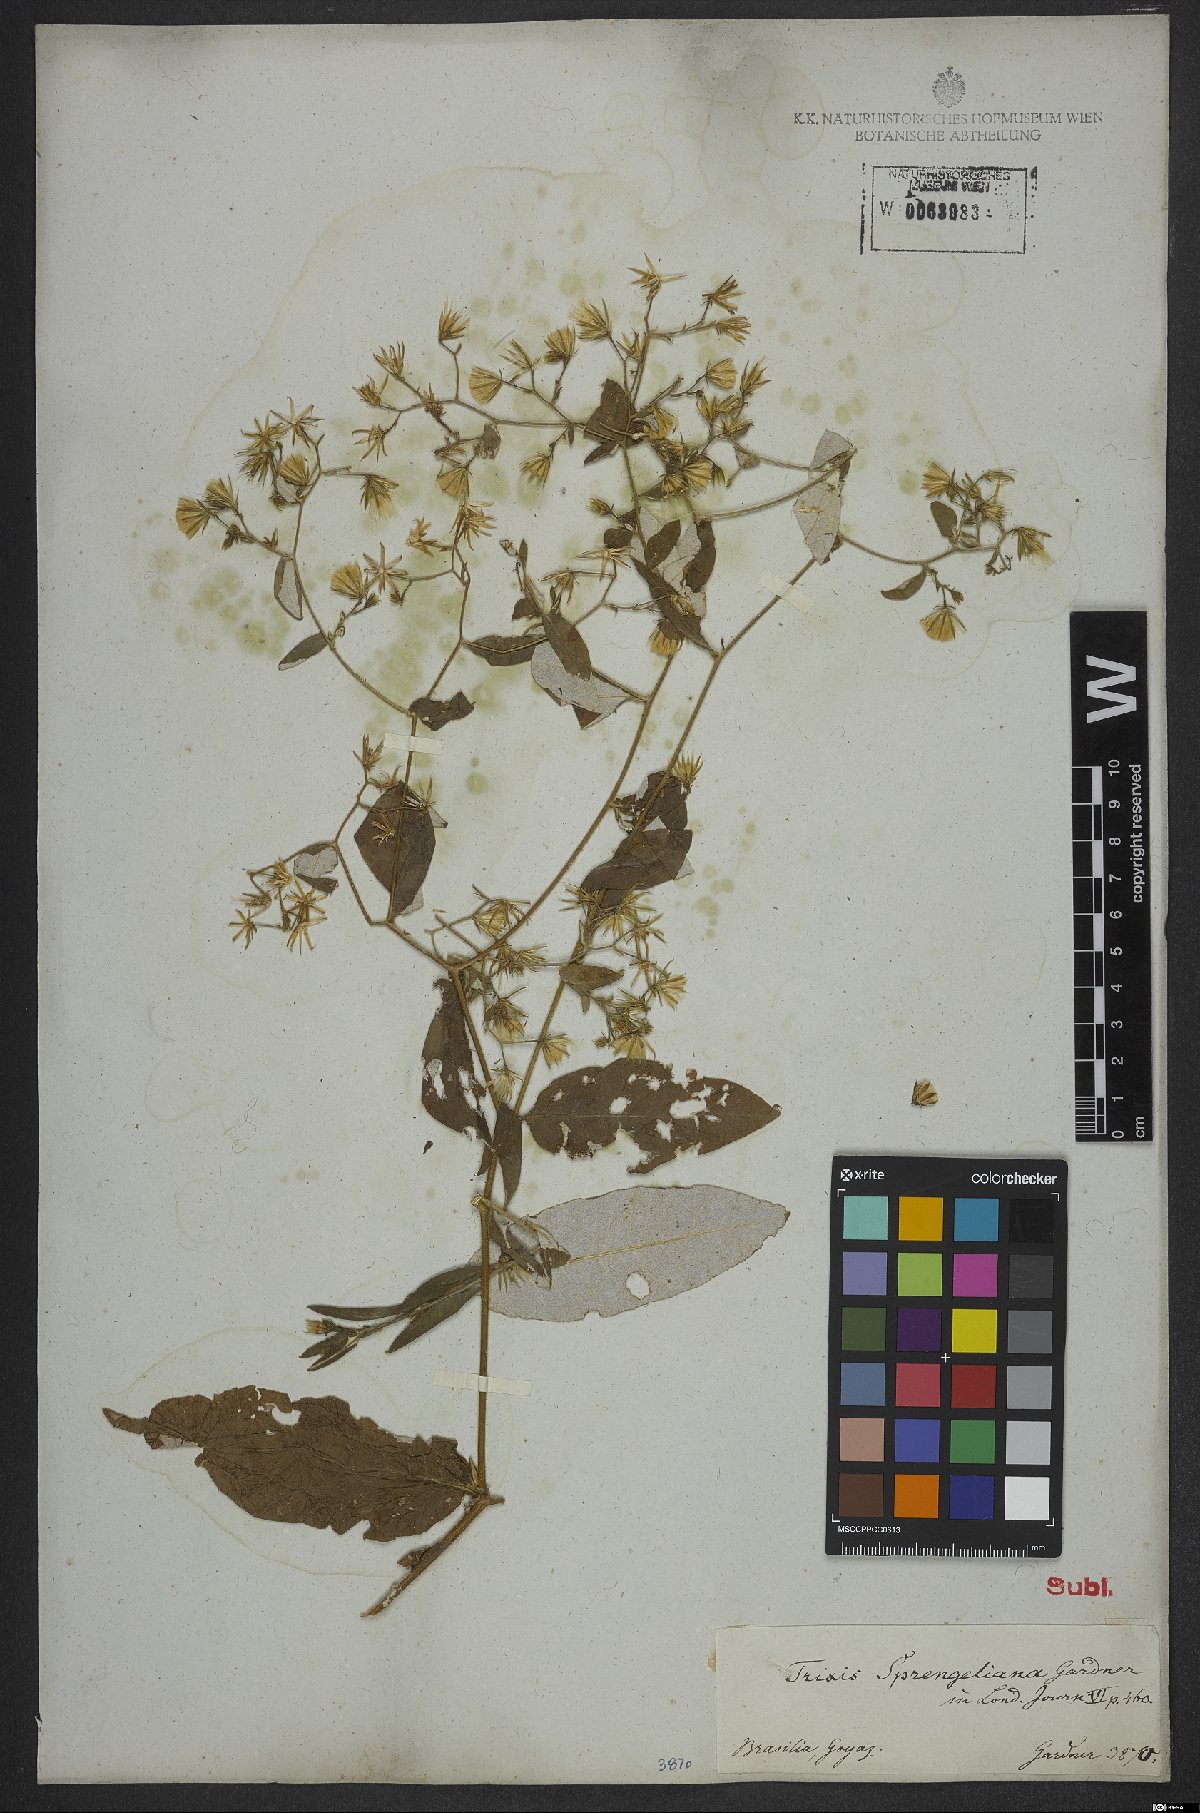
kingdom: Plantae
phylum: Tracheophyta
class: Magnoliopsida
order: Asterales
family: Asteraceae
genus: Trixis
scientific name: Trixis divaricata
